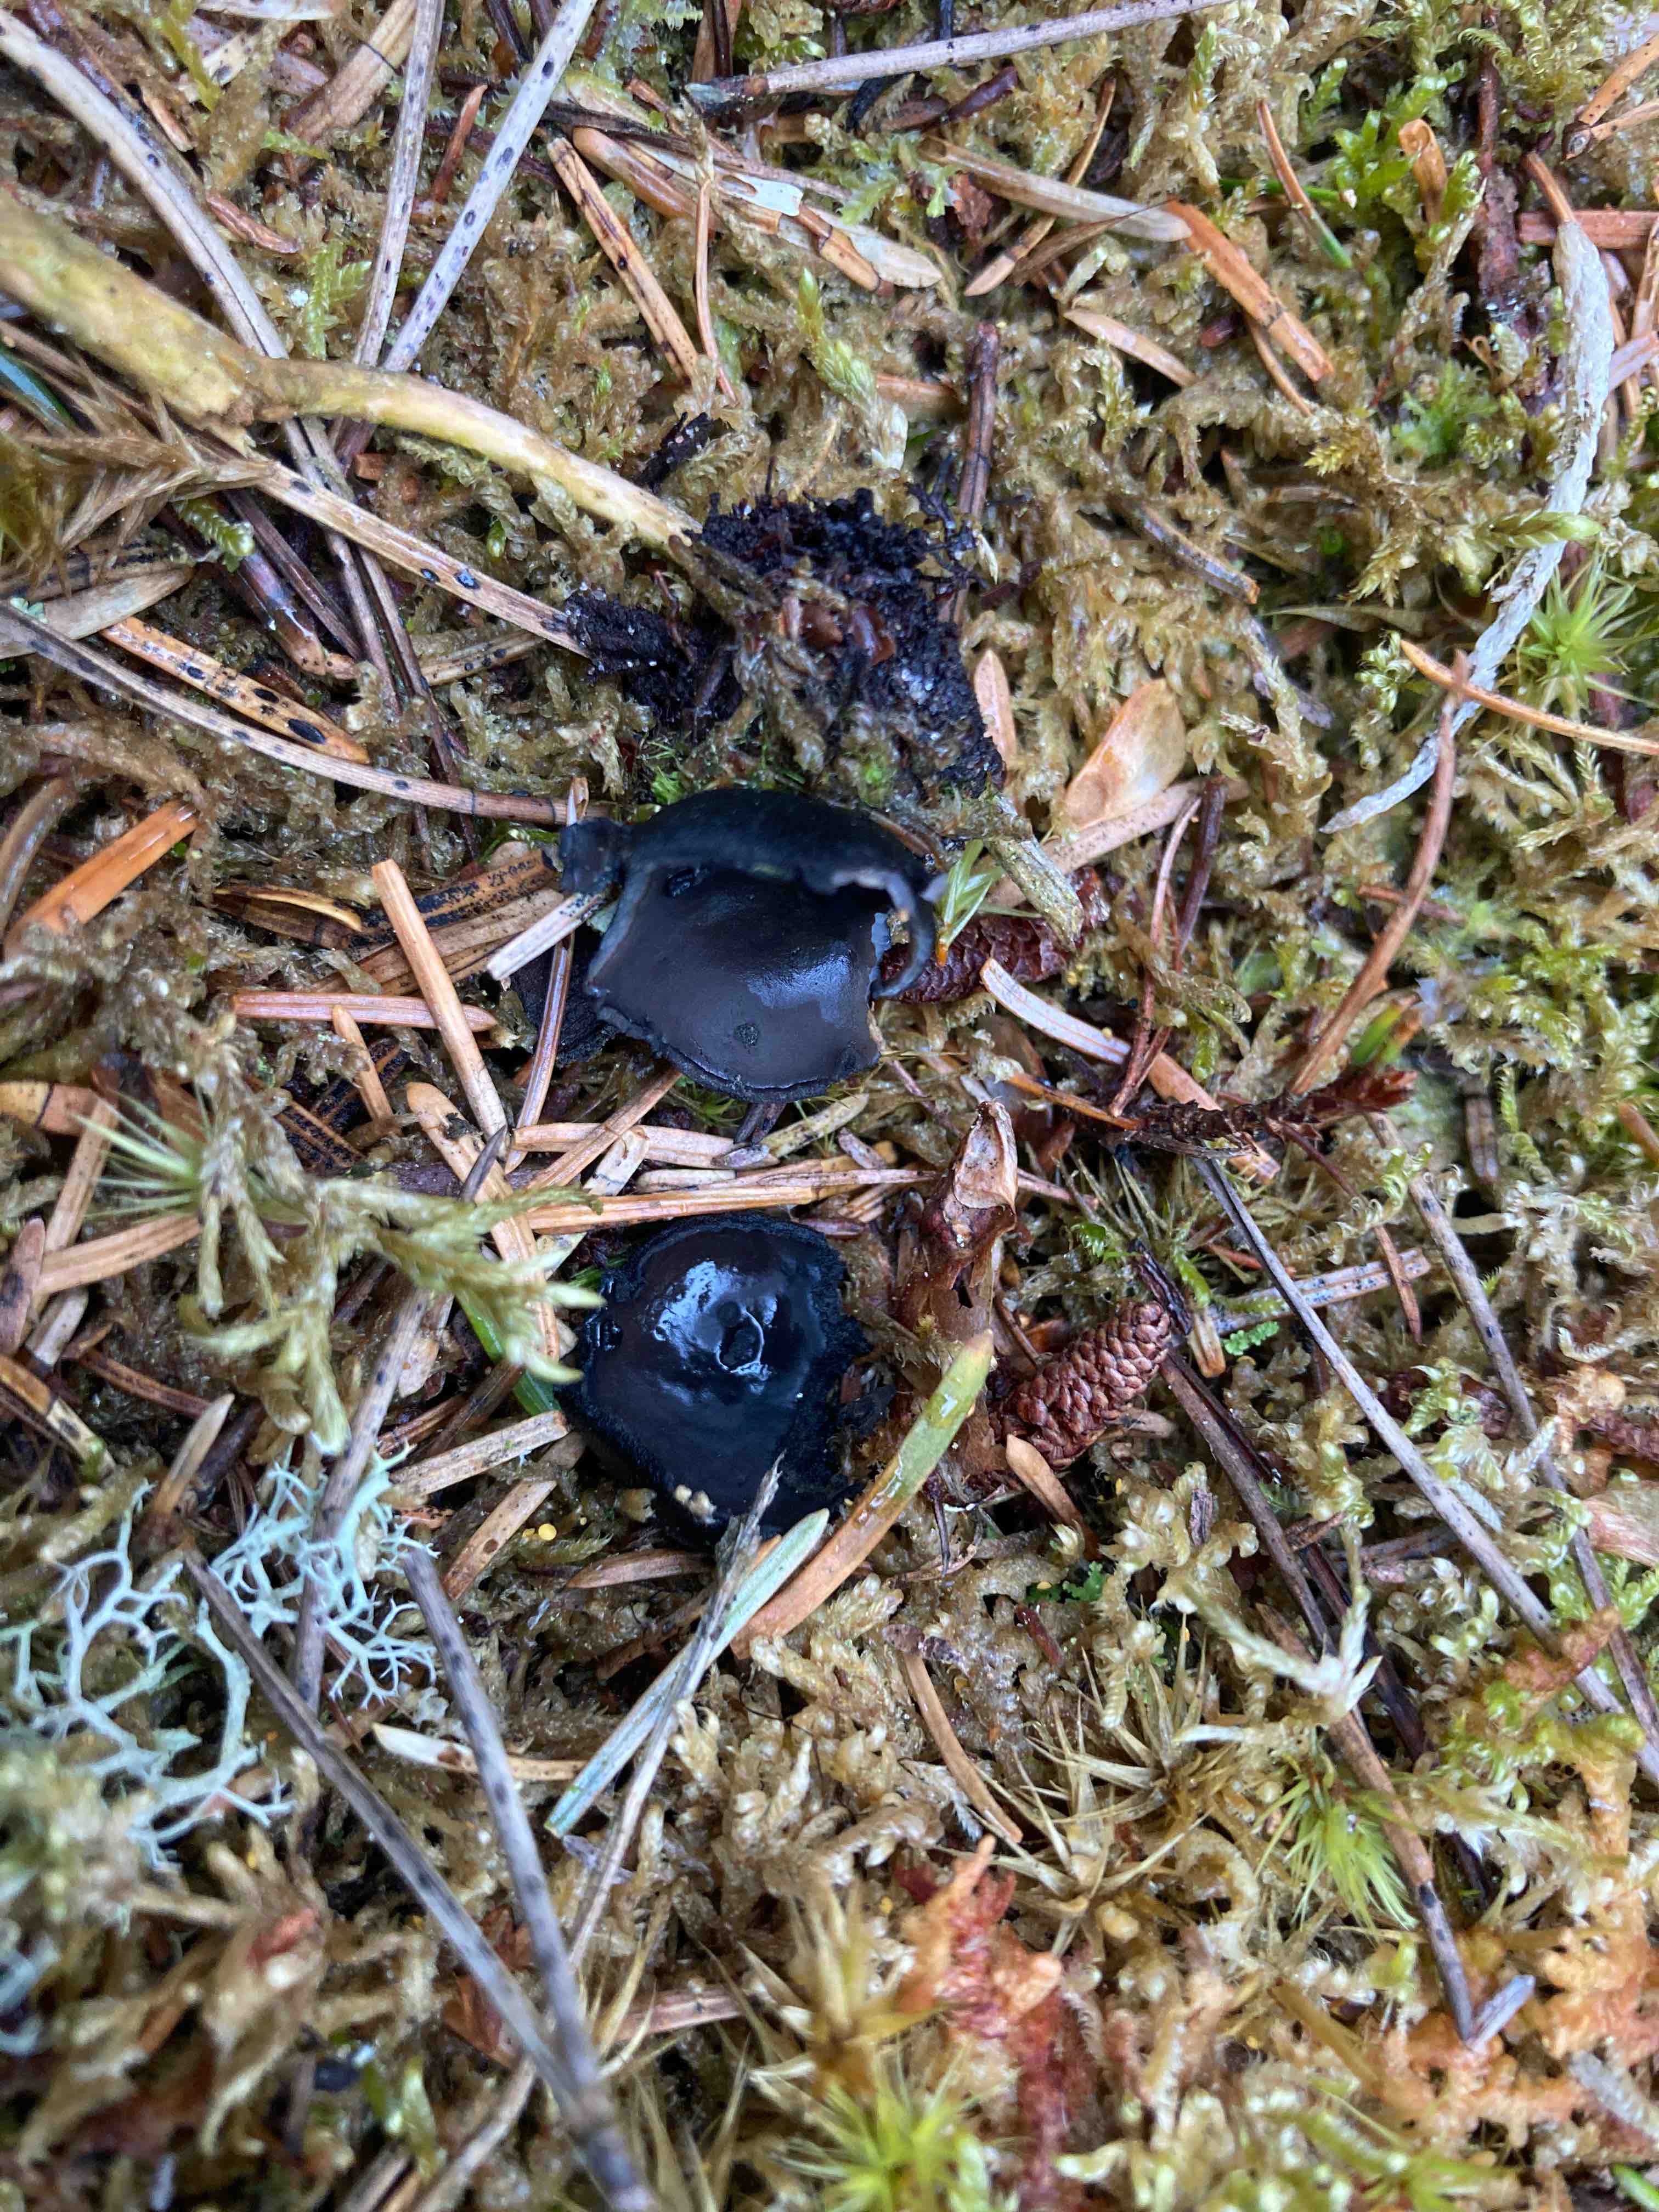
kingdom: Fungi
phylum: Ascomycota
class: Pezizomycetes
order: Pezizales
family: Sarcosomataceae
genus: Pseudoplectania
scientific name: Pseudoplectania nigrella
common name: almindelig sortbæger
